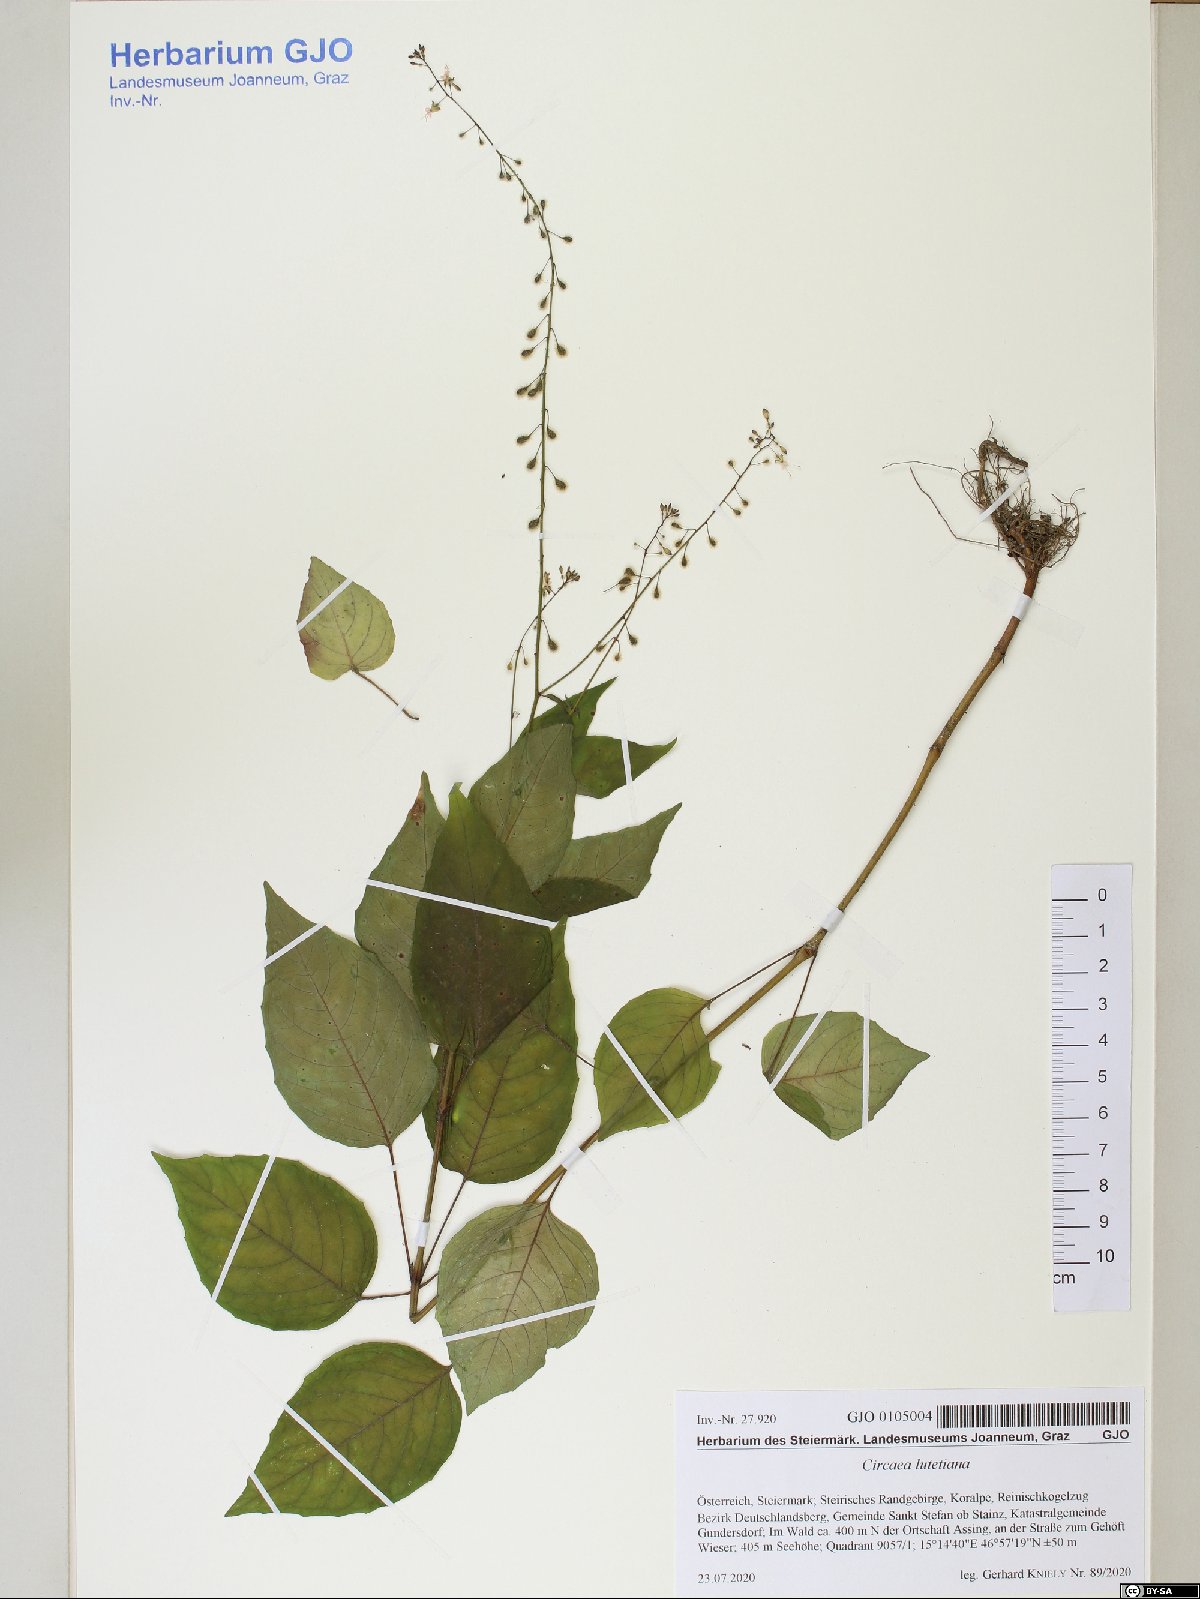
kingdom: Plantae
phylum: Tracheophyta
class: Magnoliopsida
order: Myrtales
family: Onagraceae
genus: Circaea
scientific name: Circaea lutetiana
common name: Enchanter's-nightshade
